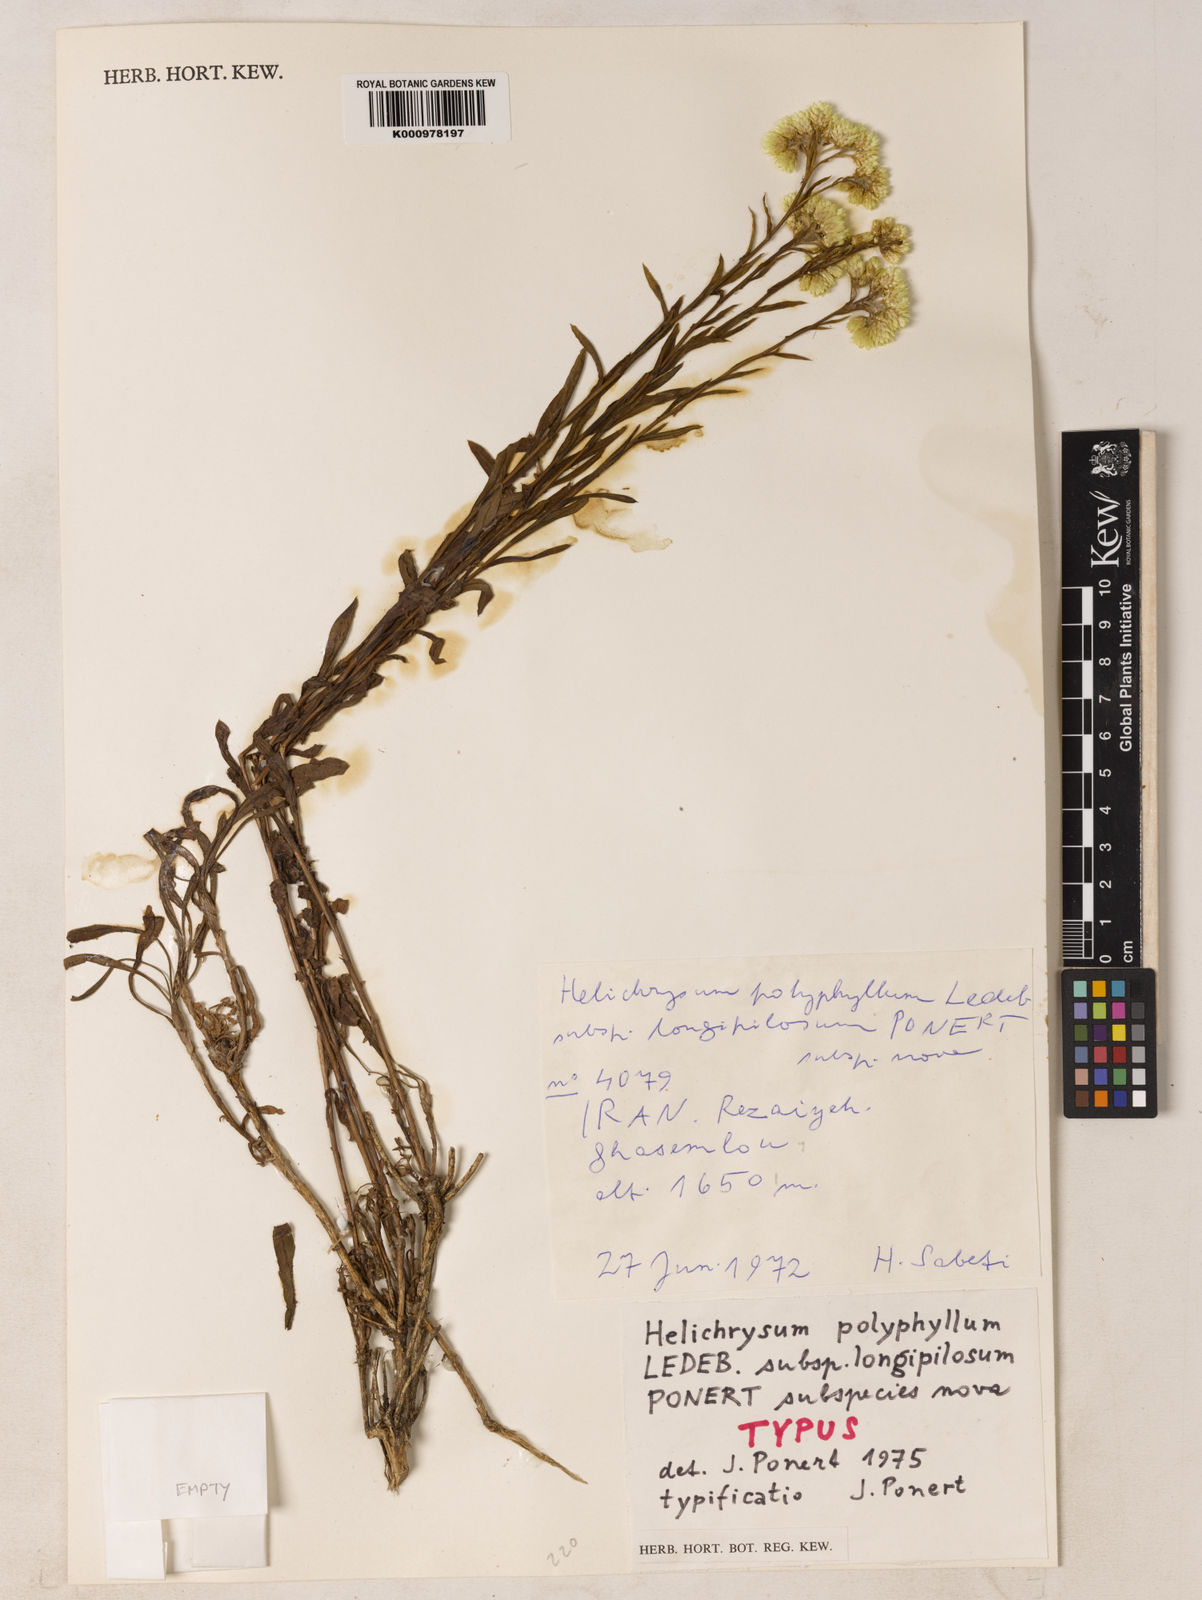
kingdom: Plantae
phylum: Tracheophyta
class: Magnoliopsida
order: Asterales
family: Asteraceae
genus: Helichrysum
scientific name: Helichrysum plicatum
